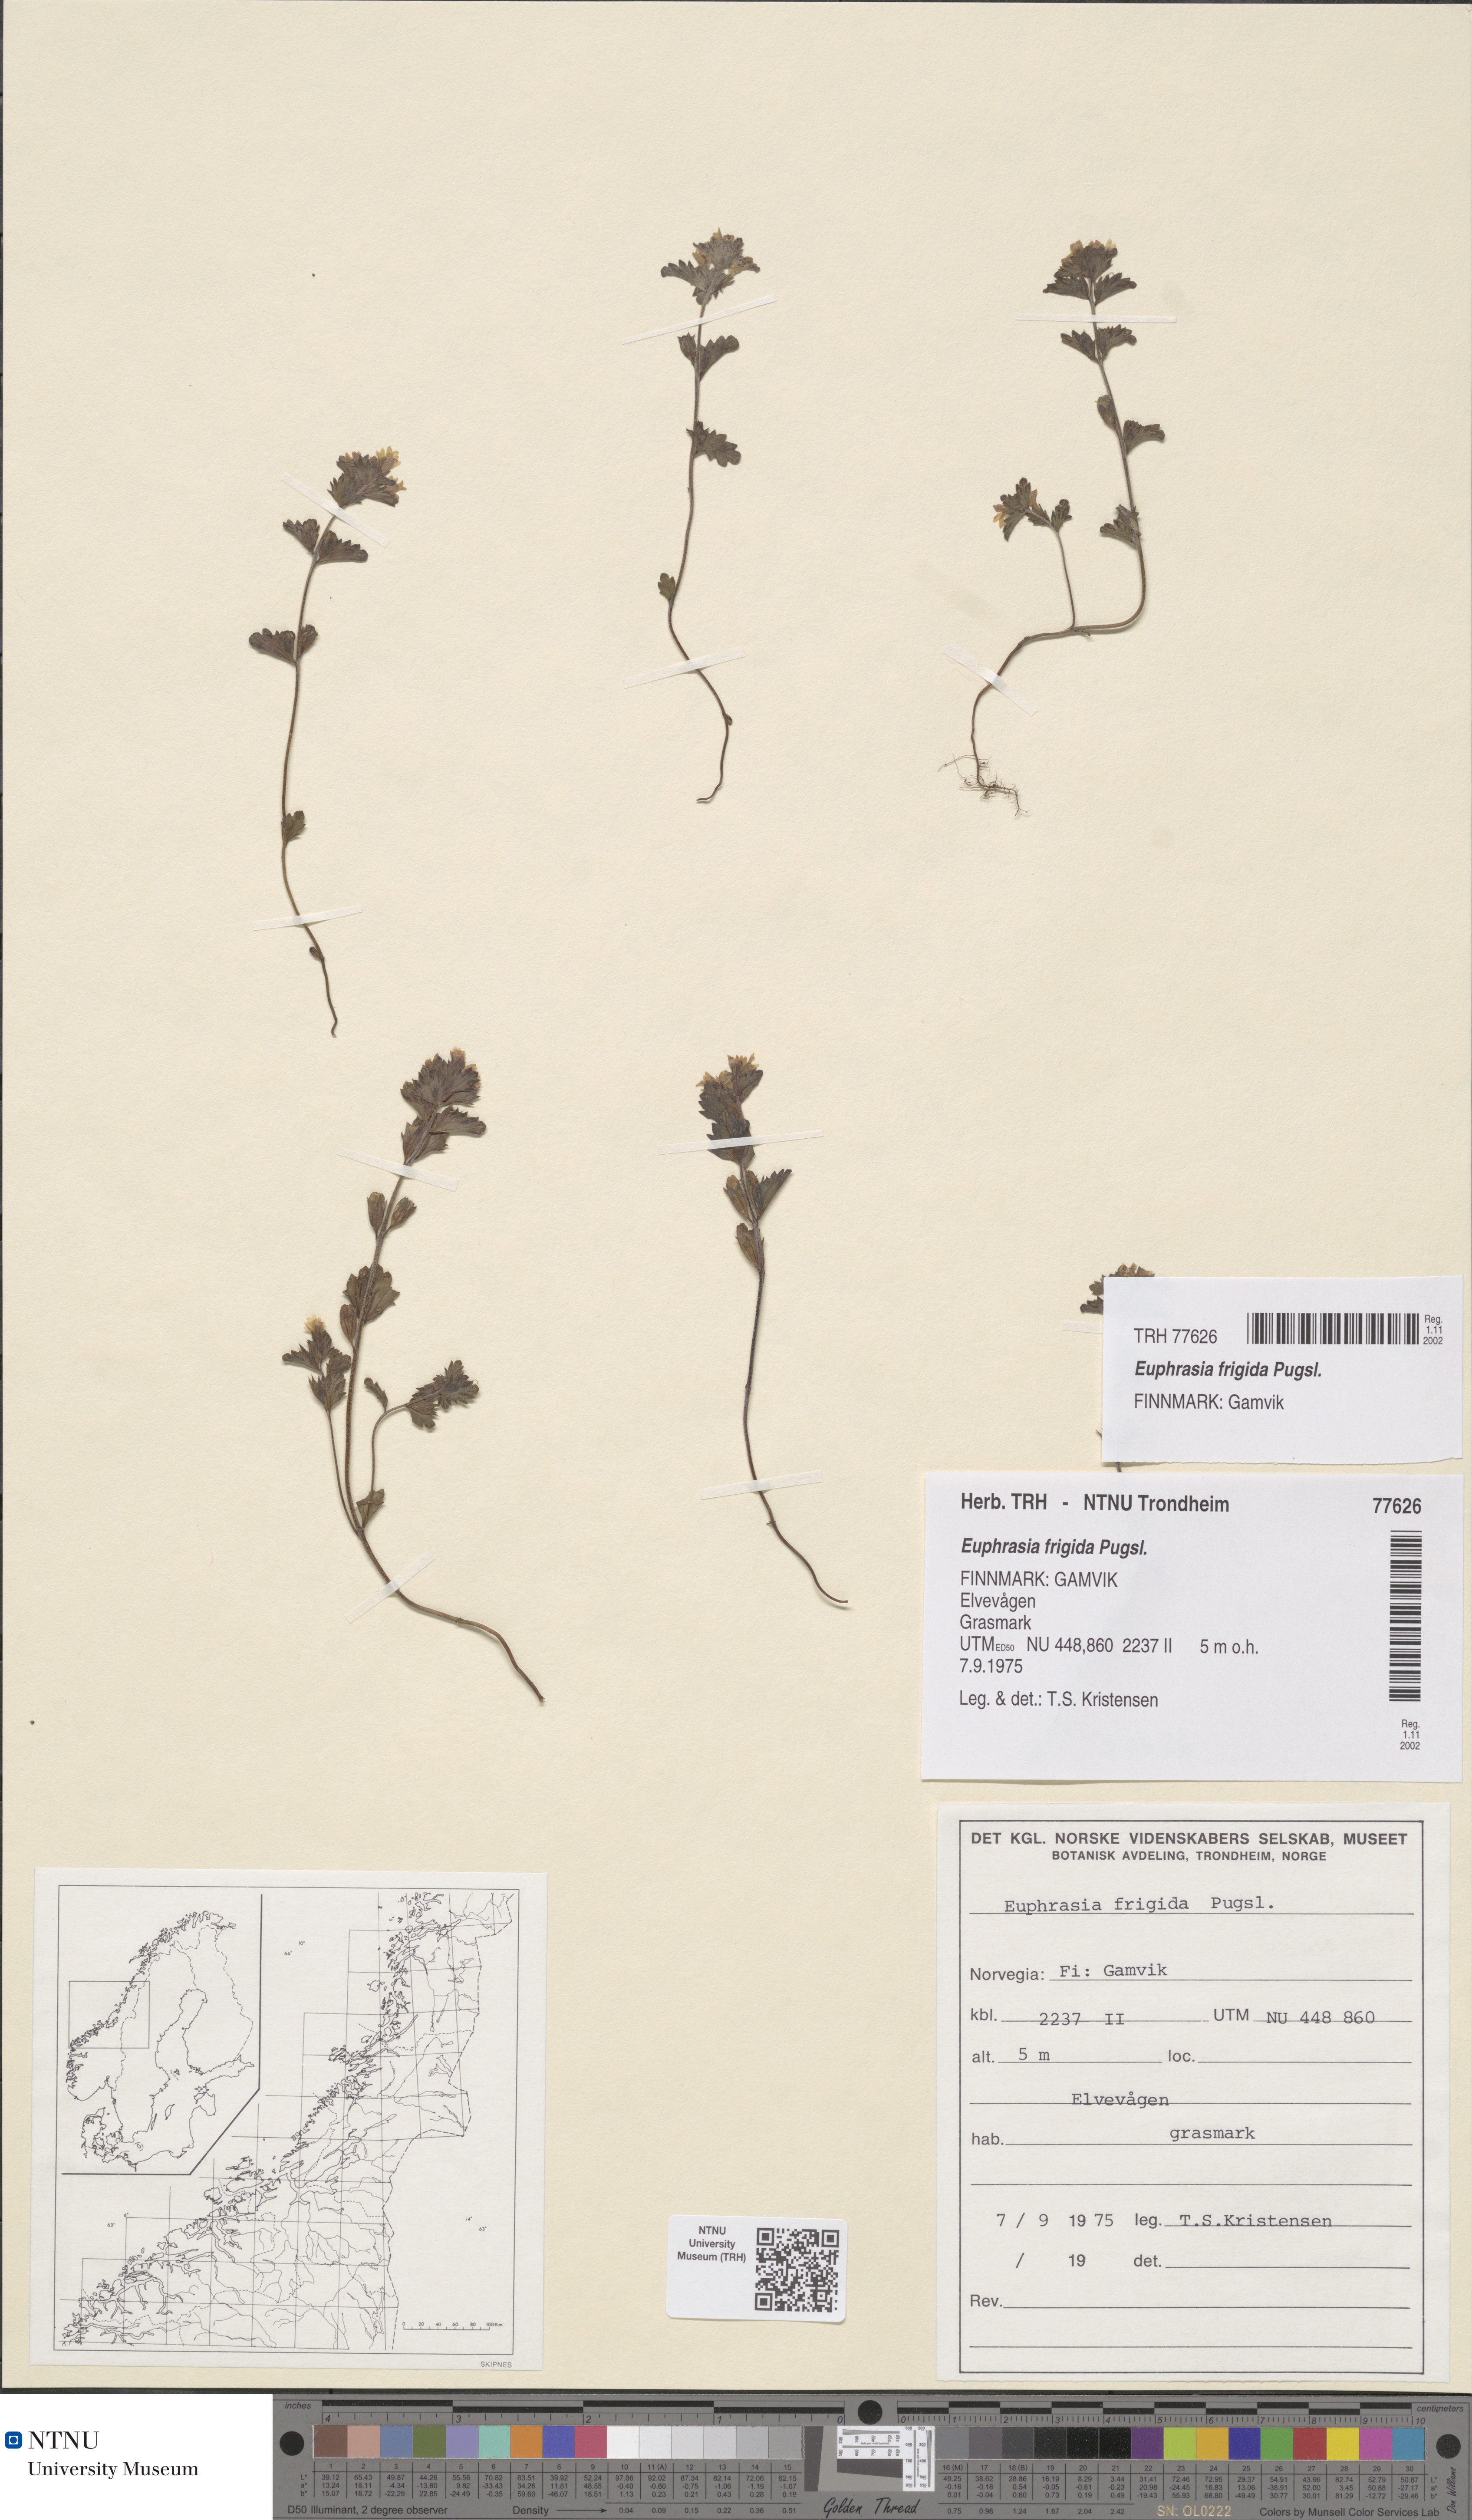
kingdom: Plantae
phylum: Tracheophyta
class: Magnoliopsida
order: Lamiales
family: Orobanchaceae
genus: Euphrasia
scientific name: Euphrasia wettsteinii
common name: Wettstein's eyebright
